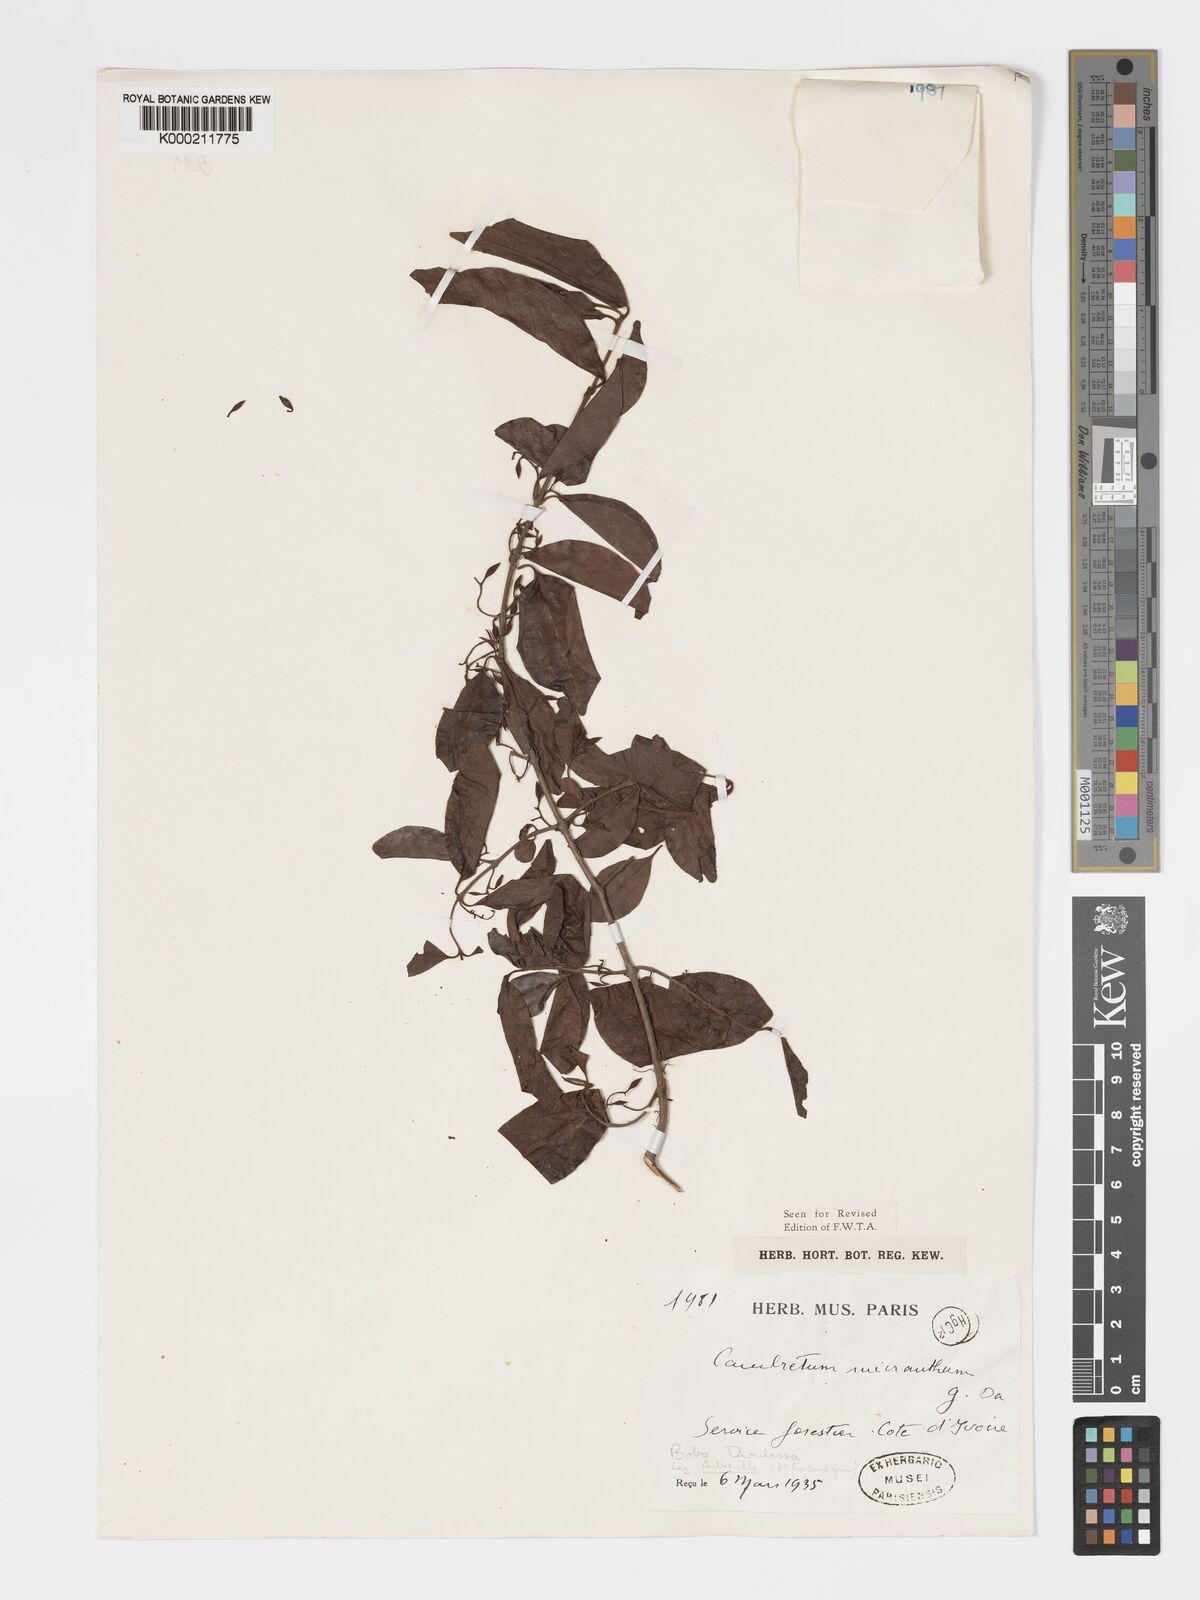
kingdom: Plantae
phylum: Tracheophyta
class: Magnoliopsida
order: Myrtales
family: Combretaceae
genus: Combretum
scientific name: Combretum micranthum
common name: Opium-antidote
